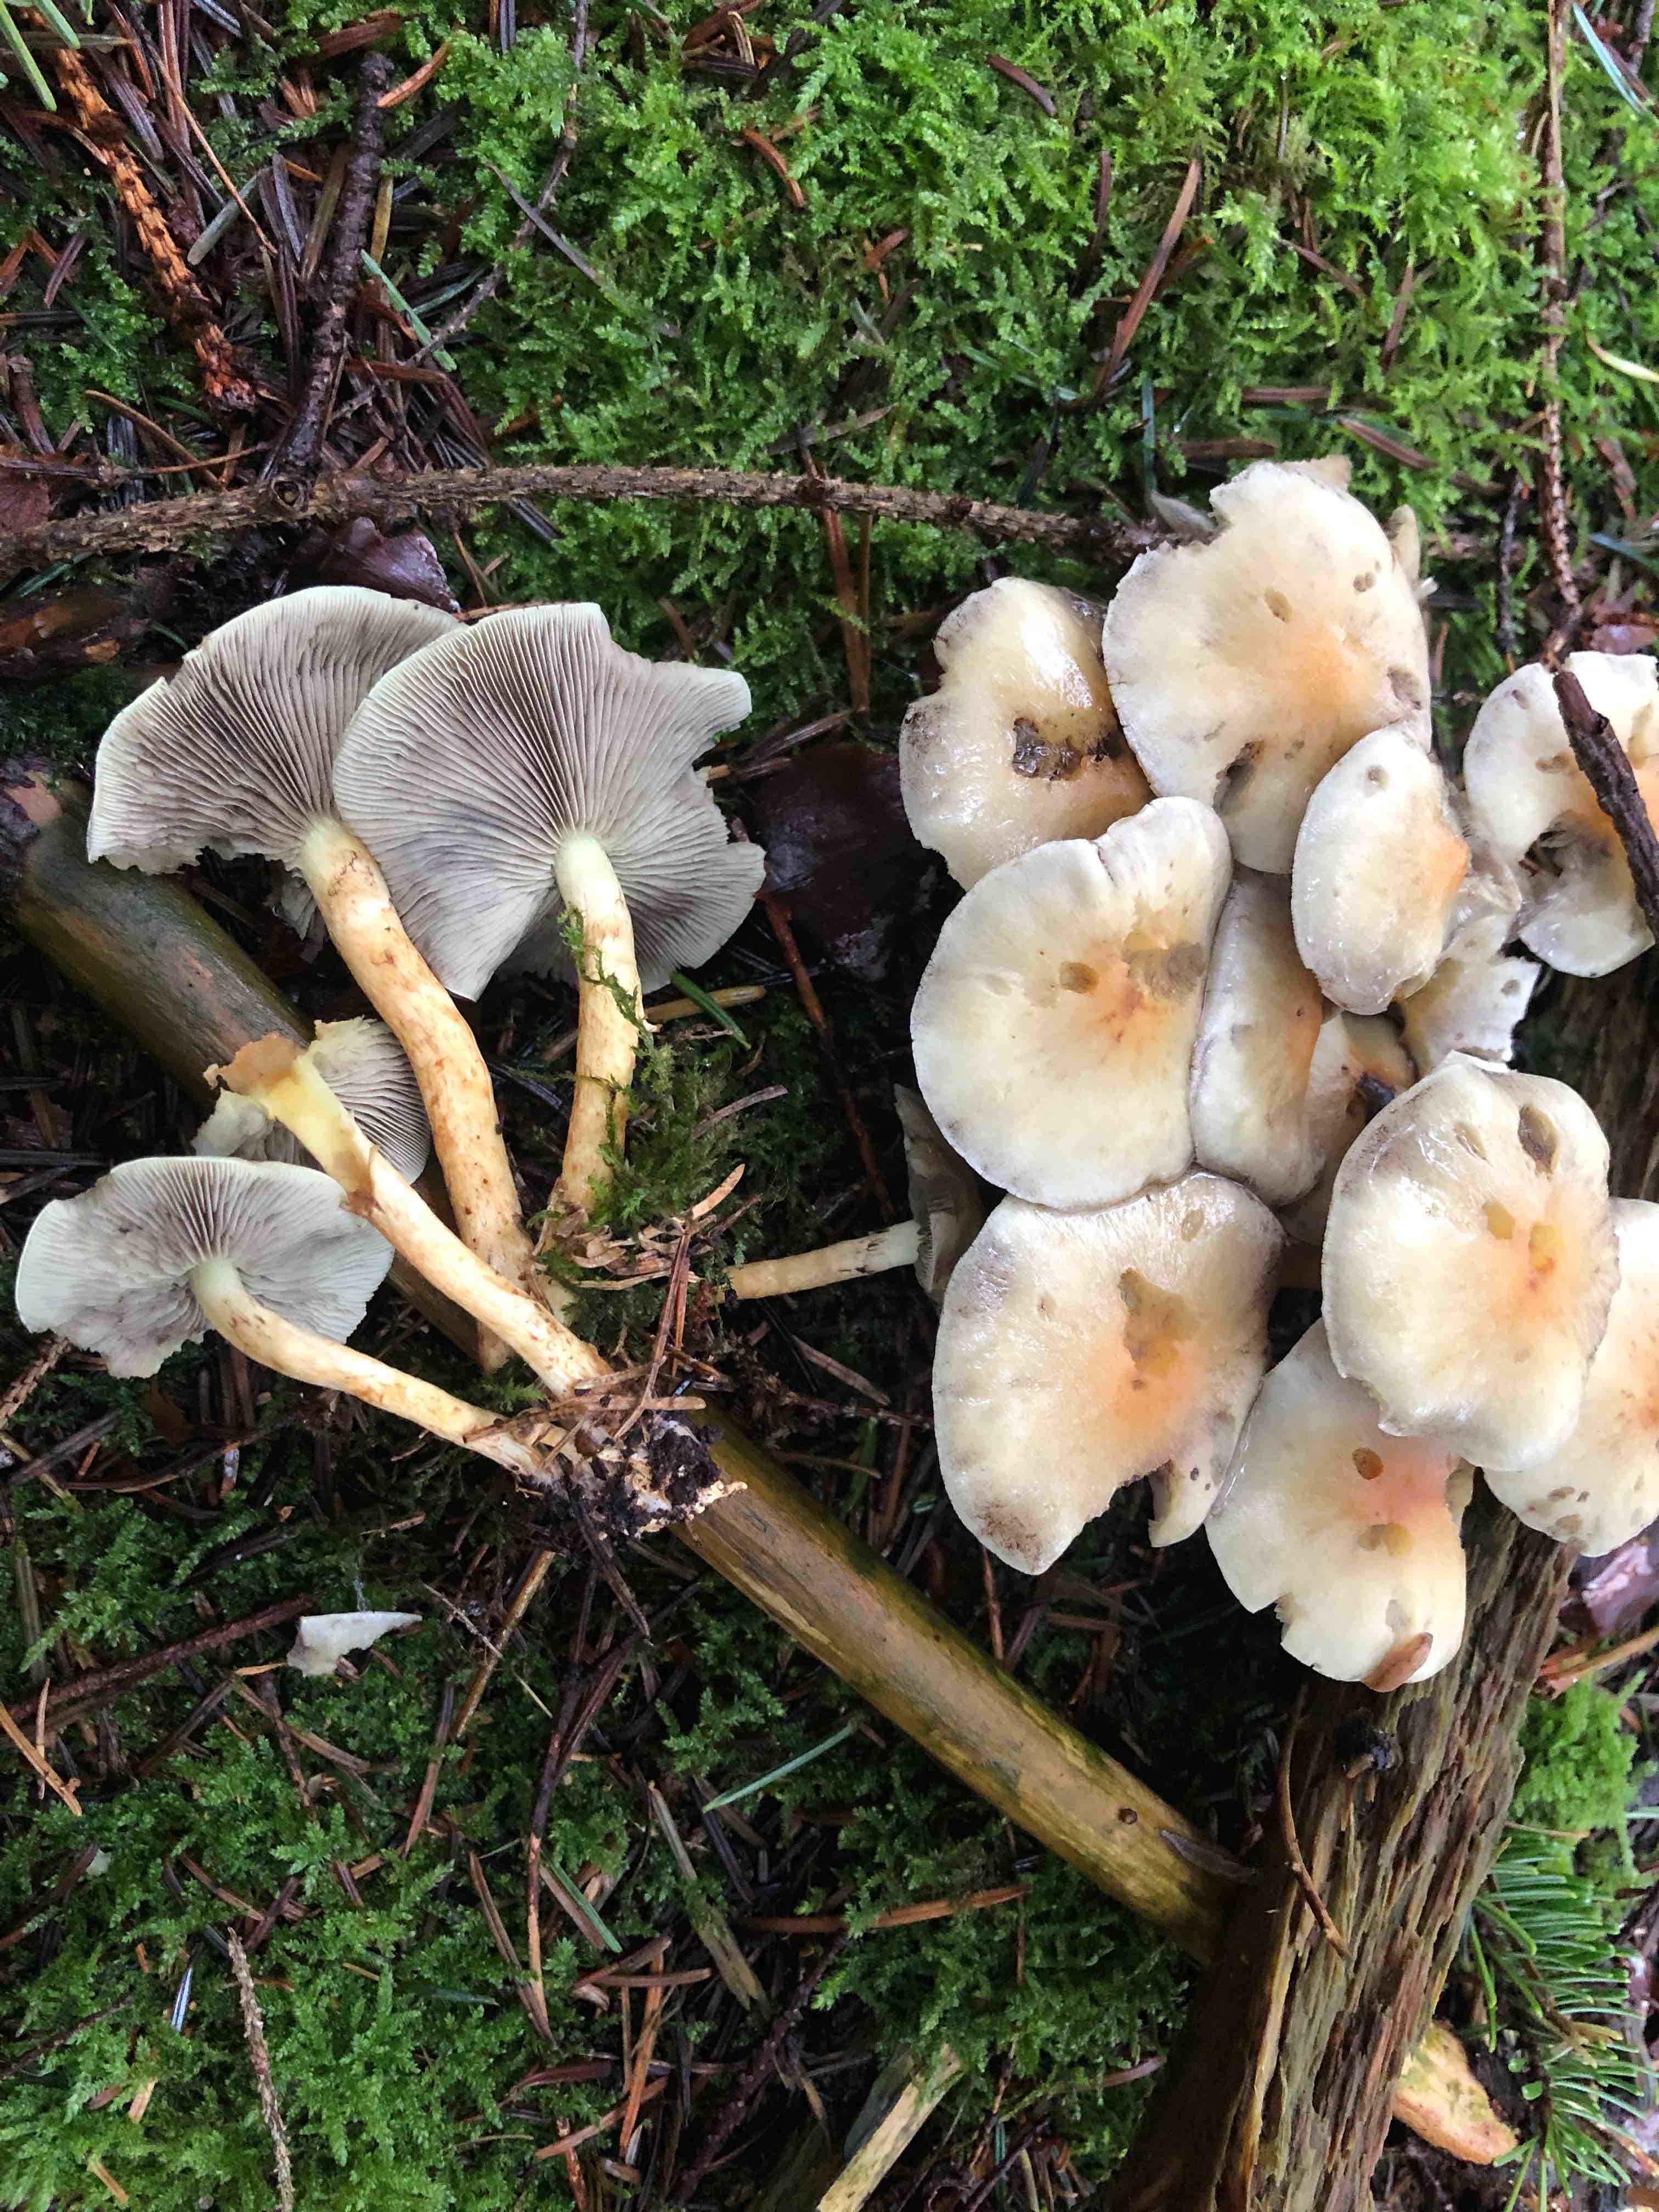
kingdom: Fungi
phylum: Basidiomycota
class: Agaricomycetes
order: Agaricales
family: Strophariaceae
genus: Hypholoma
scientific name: Hypholoma fasciculare
